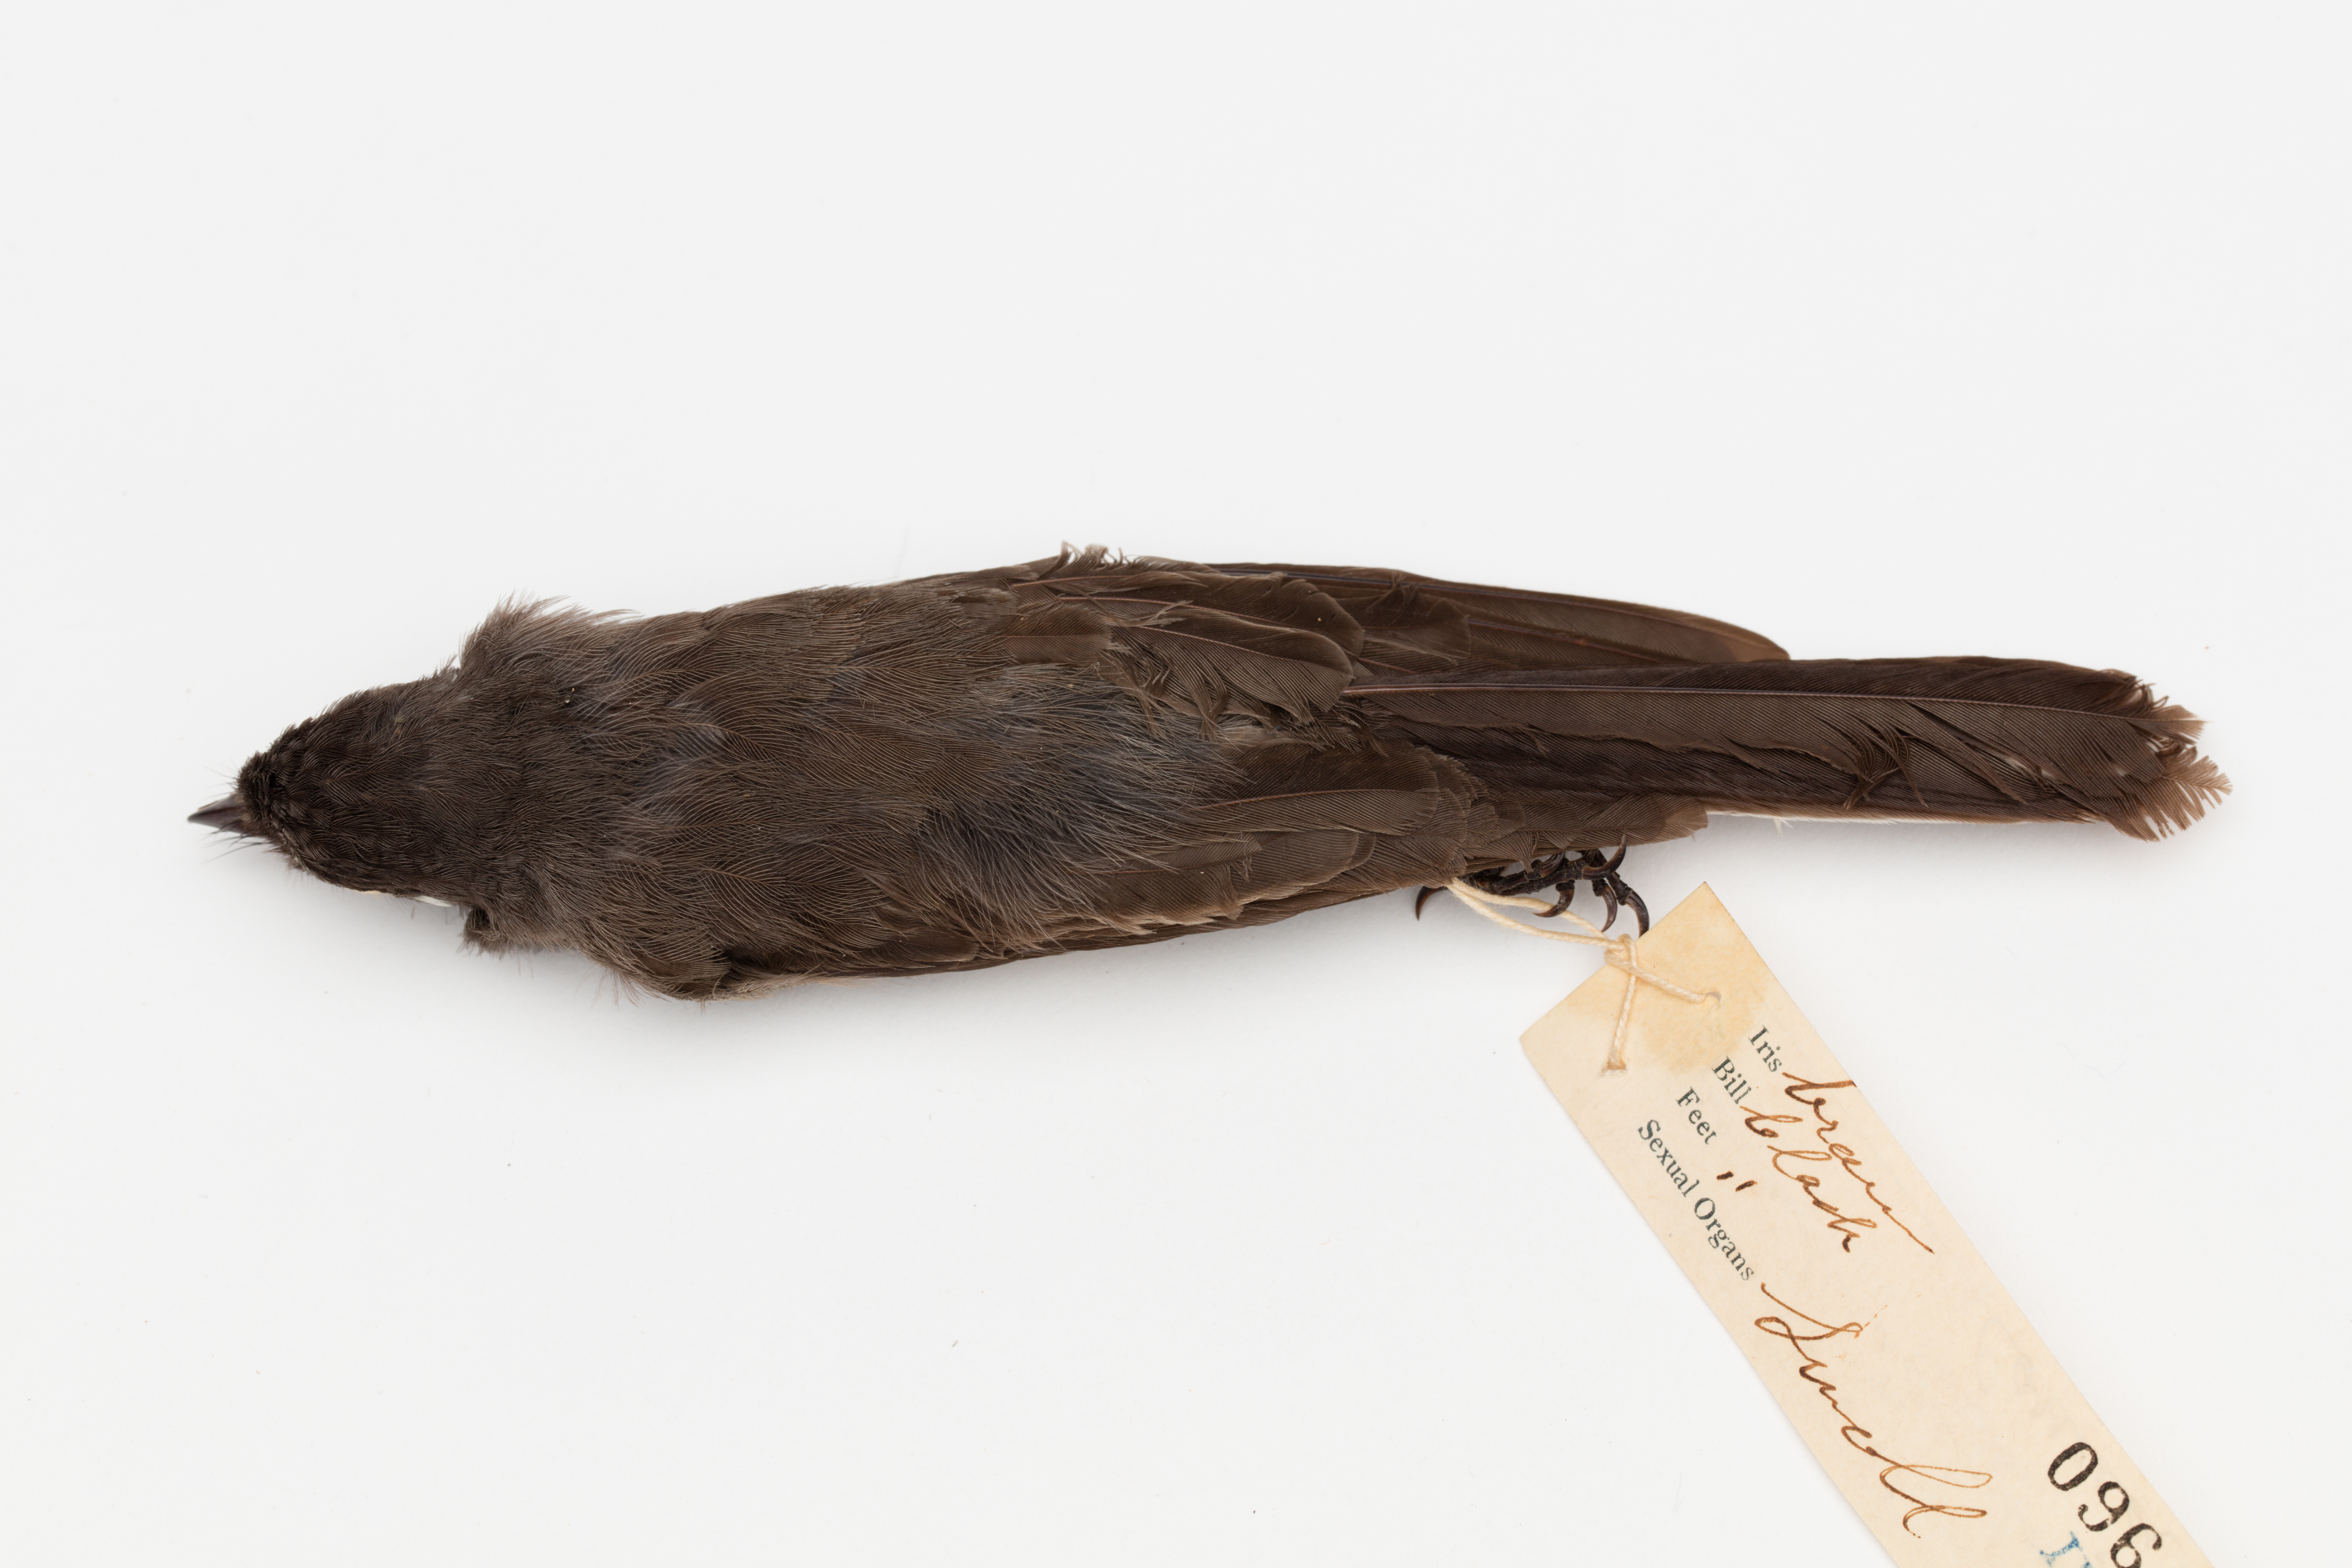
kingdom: Animalia
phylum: Chordata
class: Aves
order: Passeriformes
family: Rhipiduridae
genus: Rhipidura
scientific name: Rhipidura nebulosa
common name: Samoan fantail
